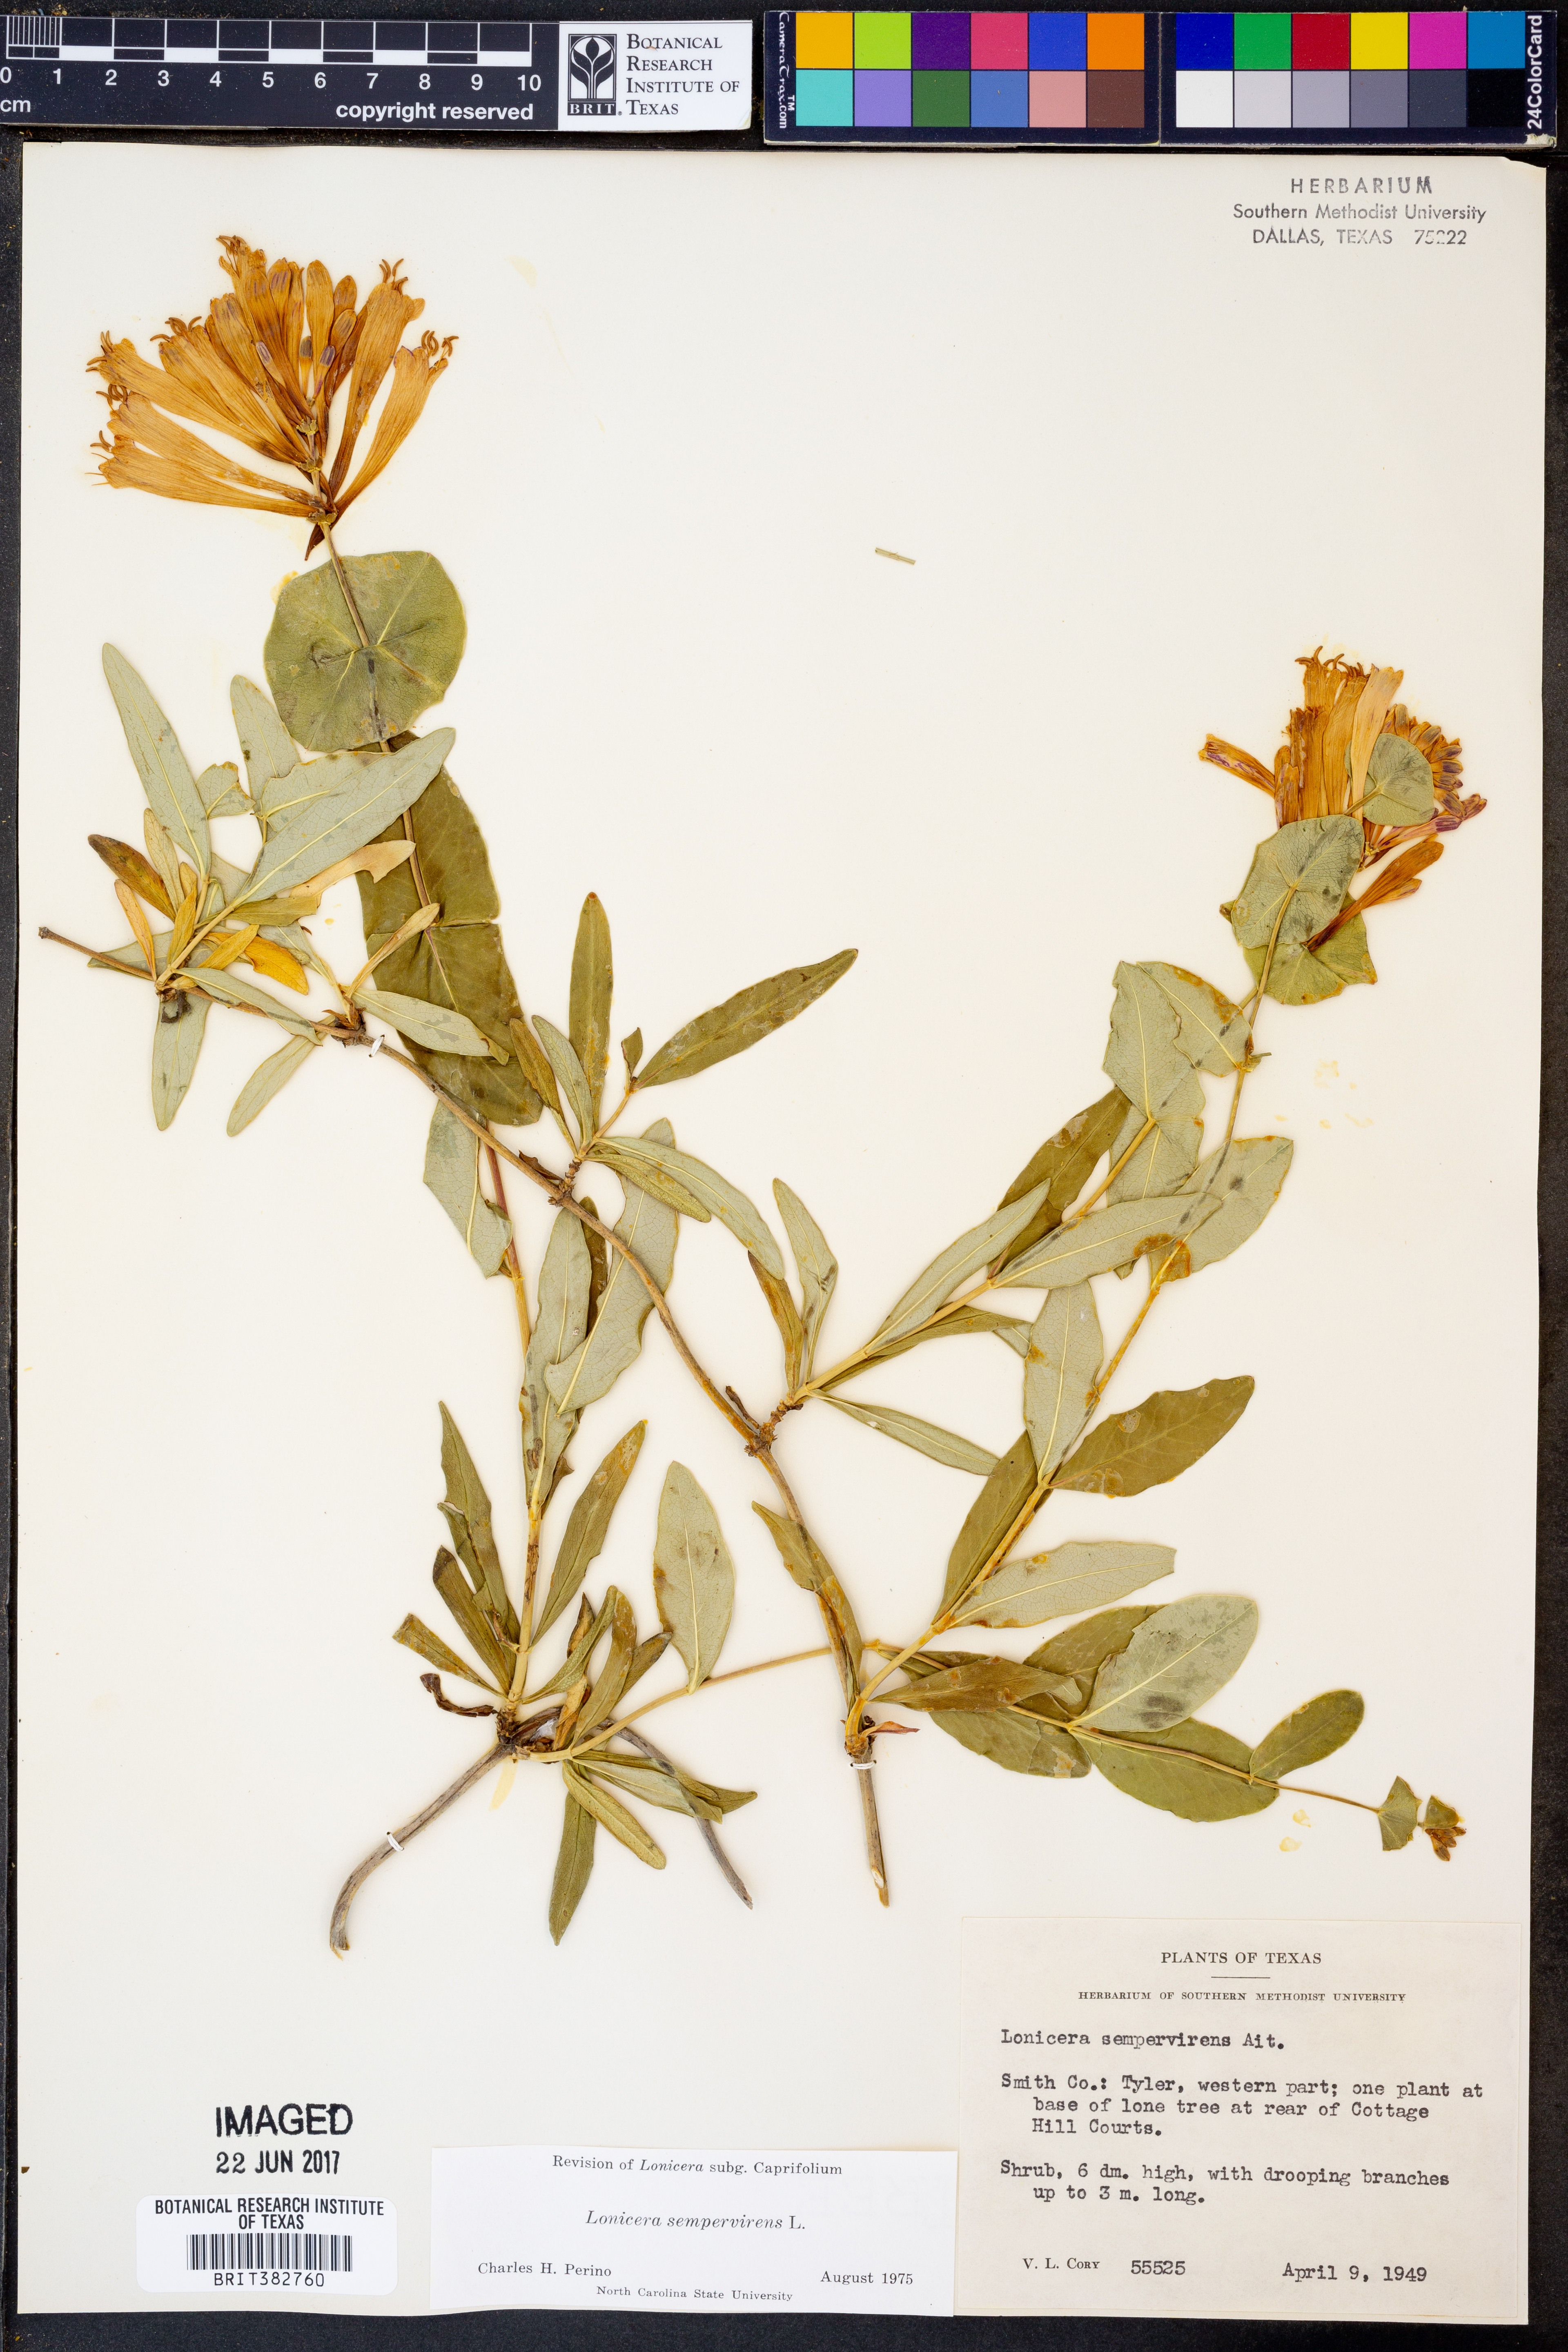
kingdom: Plantae
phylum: Tracheophyta
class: Magnoliopsida
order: Dipsacales
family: Caprifoliaceae
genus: Lonicera
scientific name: Lonicera sempervirens
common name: Coral honeysuckle
